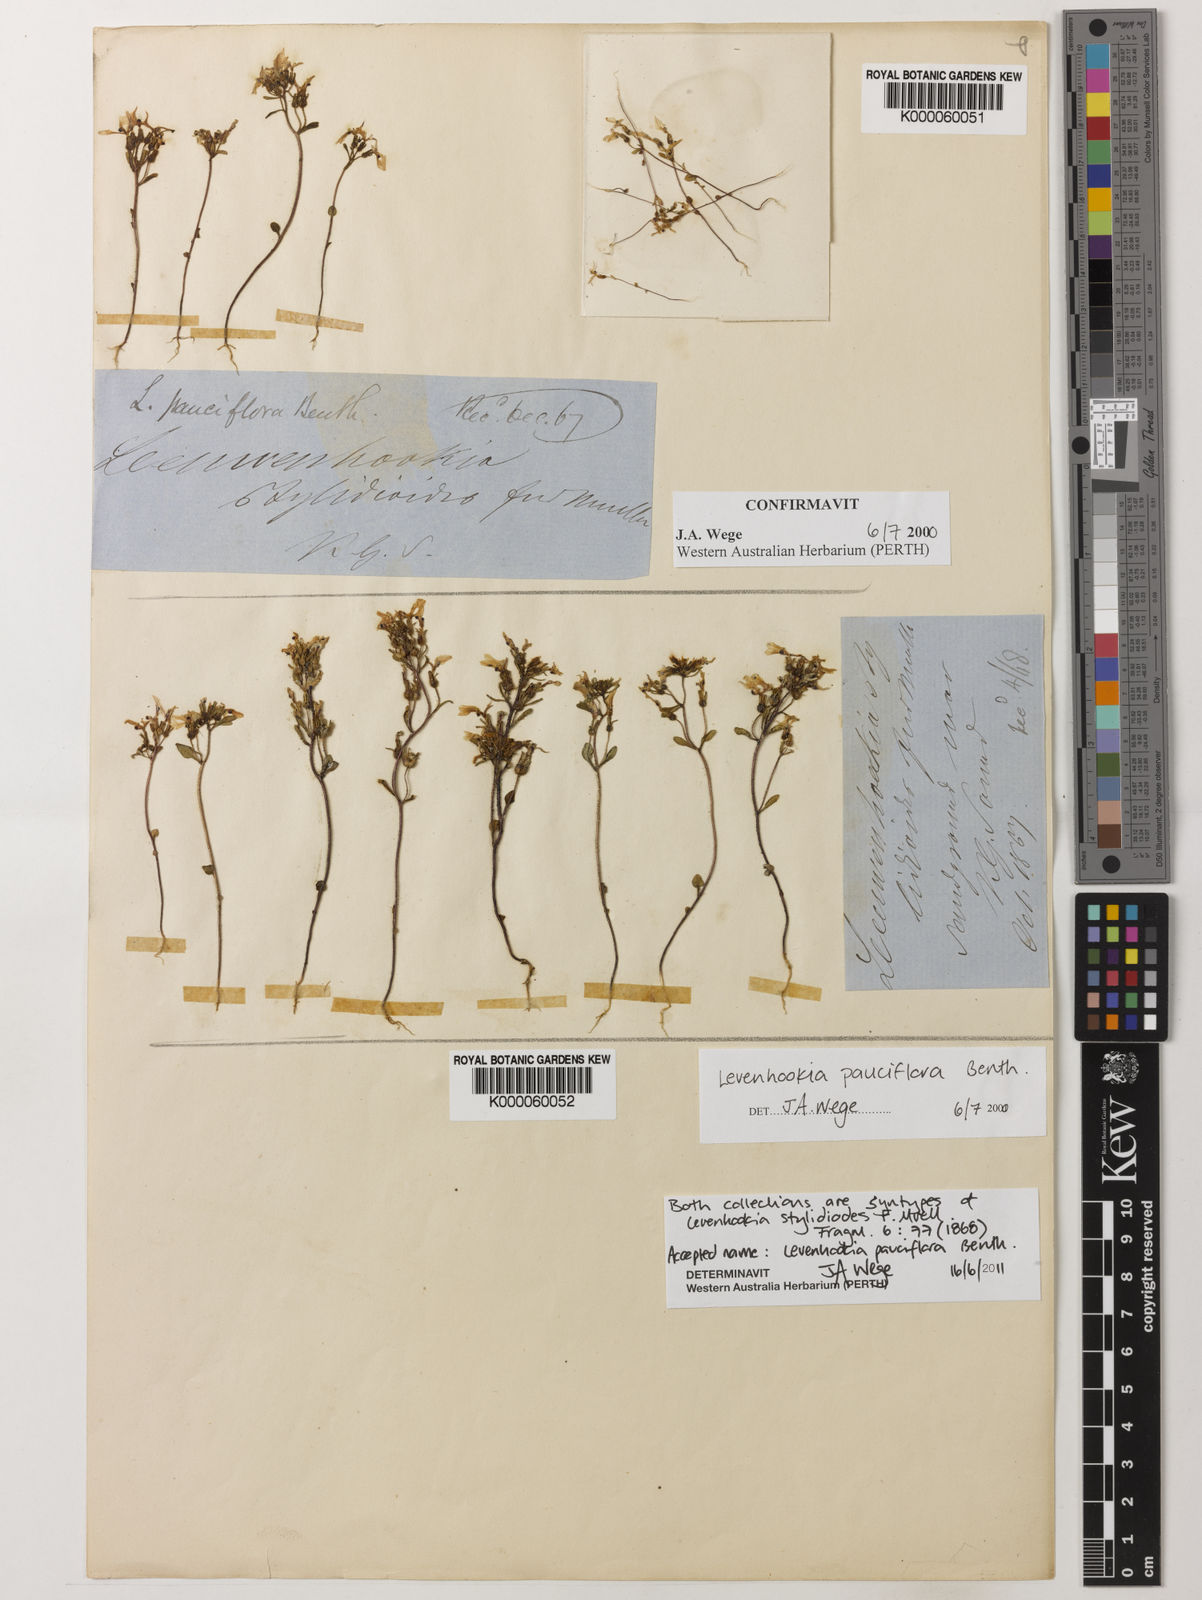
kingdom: Plantae
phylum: Tracheophyta
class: Magnoliopsida
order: Asterales
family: Stylidiaceae
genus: Levenhookia
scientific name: Levenhookia pauciflora
